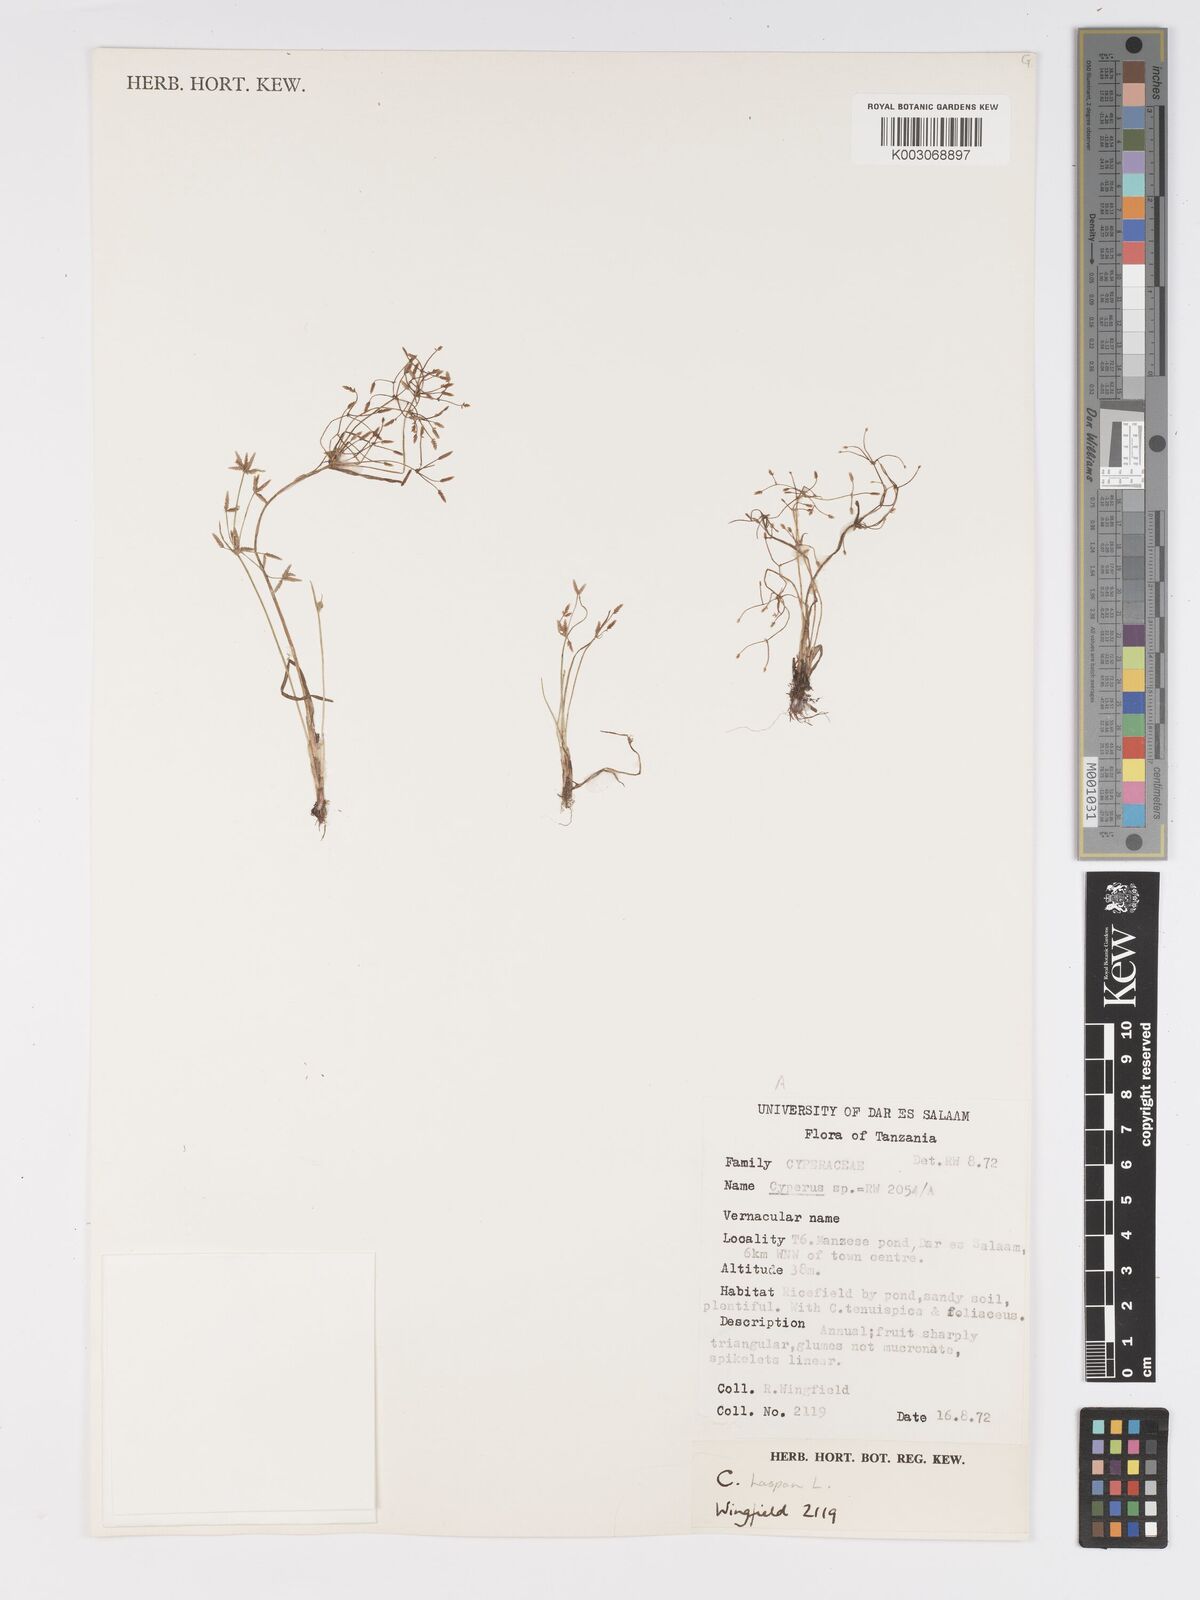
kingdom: Plantae
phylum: Tracheophyta
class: Liliopsida
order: Poales
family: Cyperaceae
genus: Cyperus
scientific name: Cyperus
